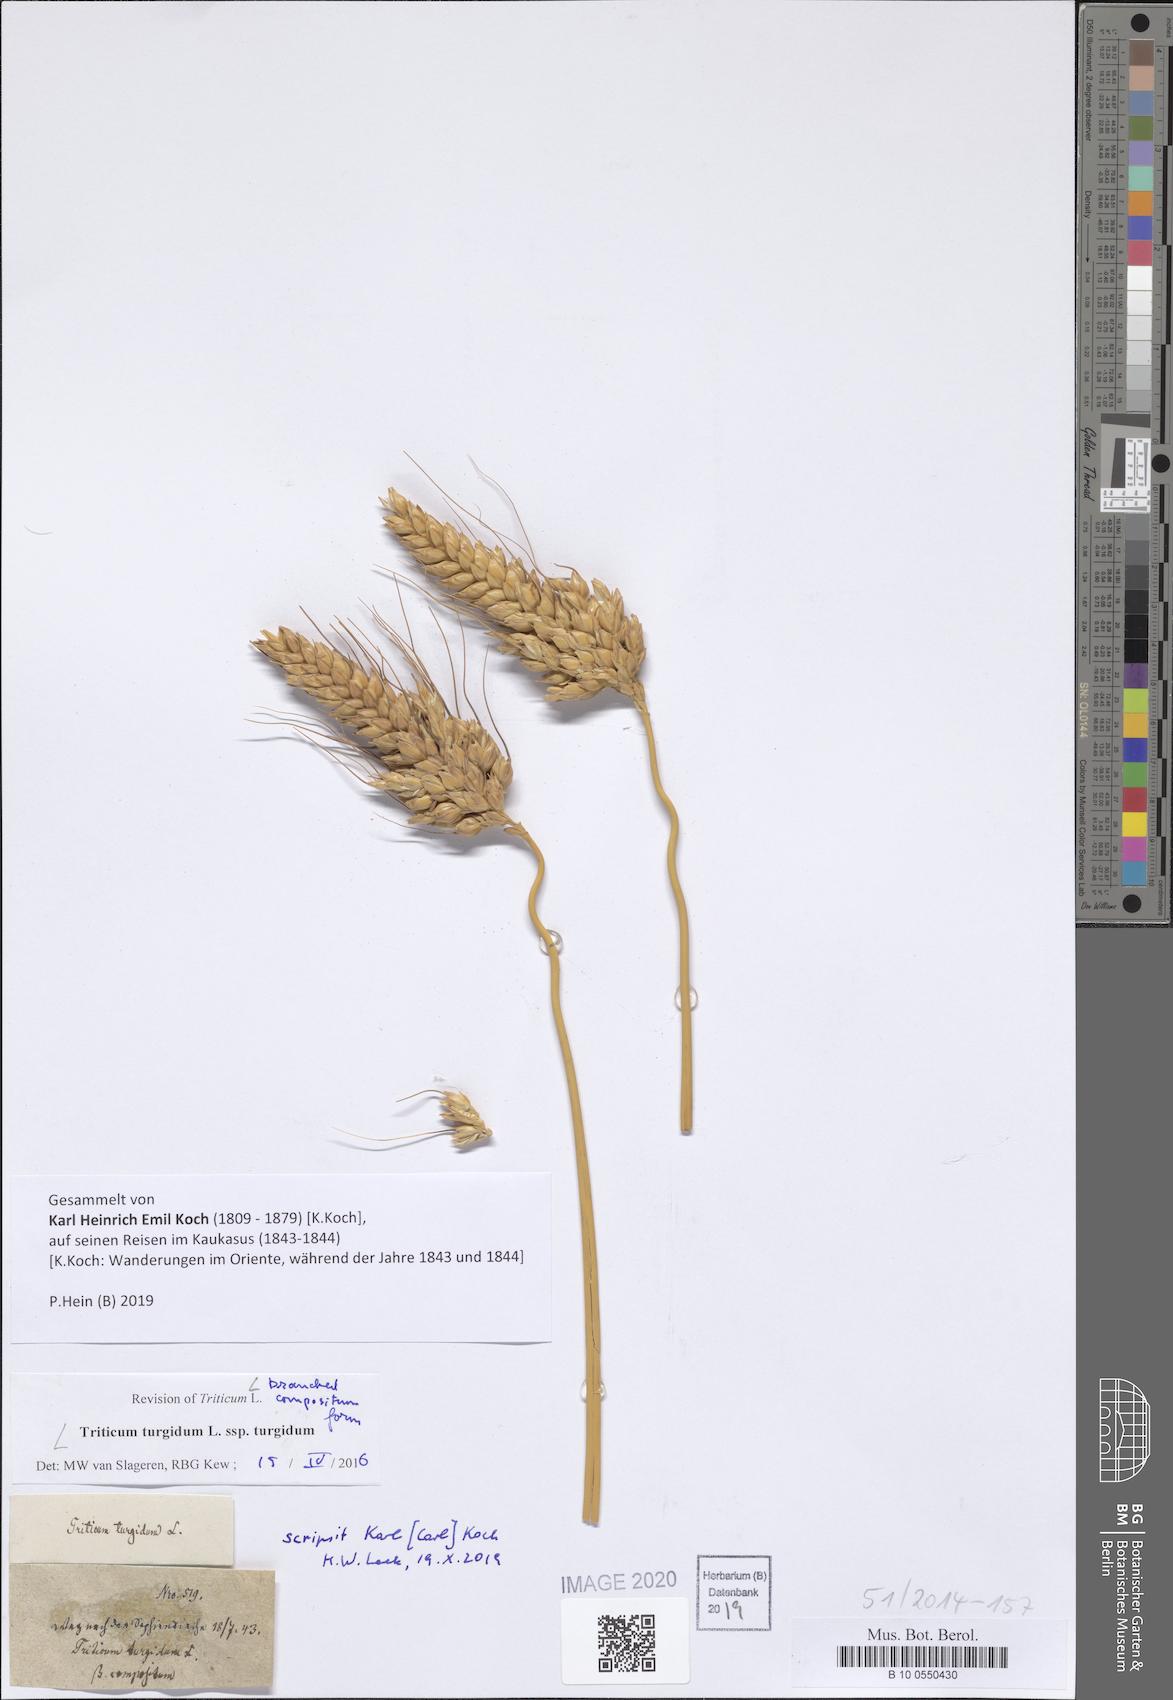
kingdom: Plantae
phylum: Tracheophyta
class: Liliopsida
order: Poales
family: Poaceae
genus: Triticum
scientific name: Triticum turgidum
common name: Rivet wheat
